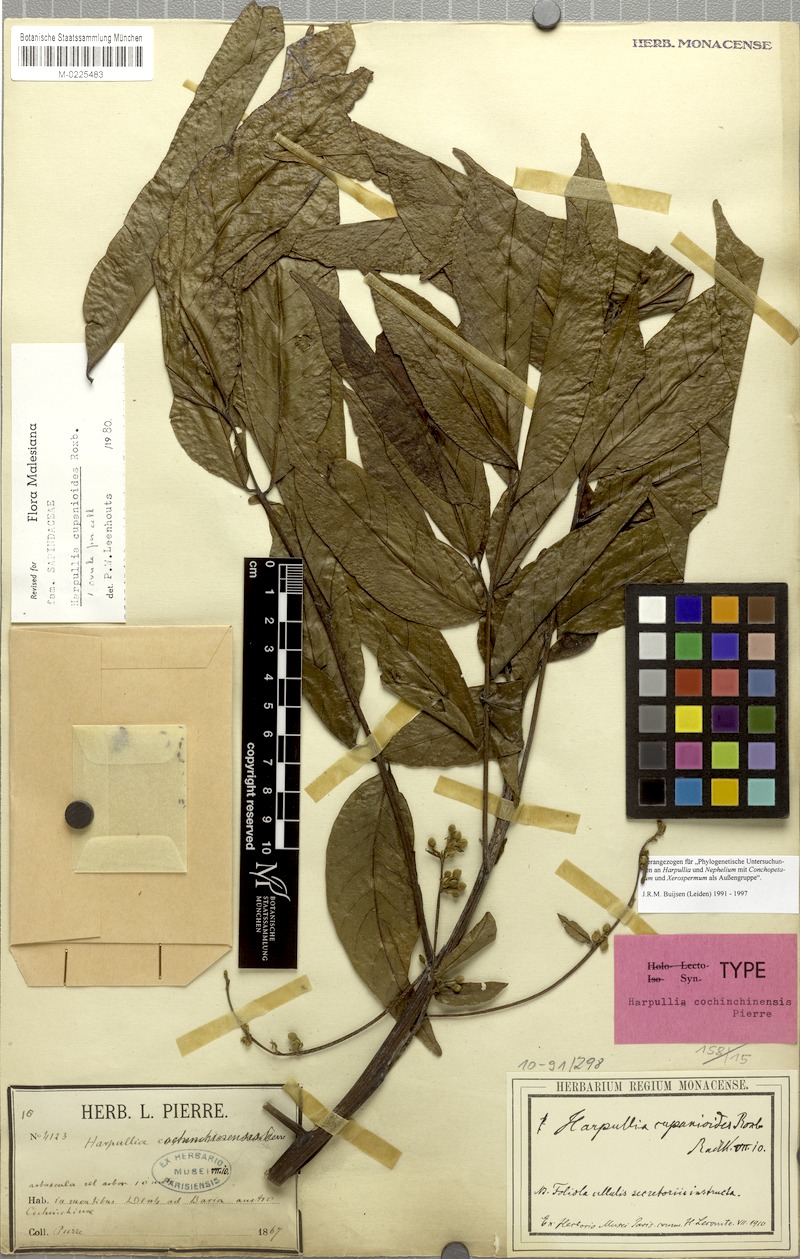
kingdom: Plantae
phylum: Tracheophyta
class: Magnoliopsida
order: Sapindales
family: Sapindaceae
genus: Harpullia
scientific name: Harpullia cupanioides
